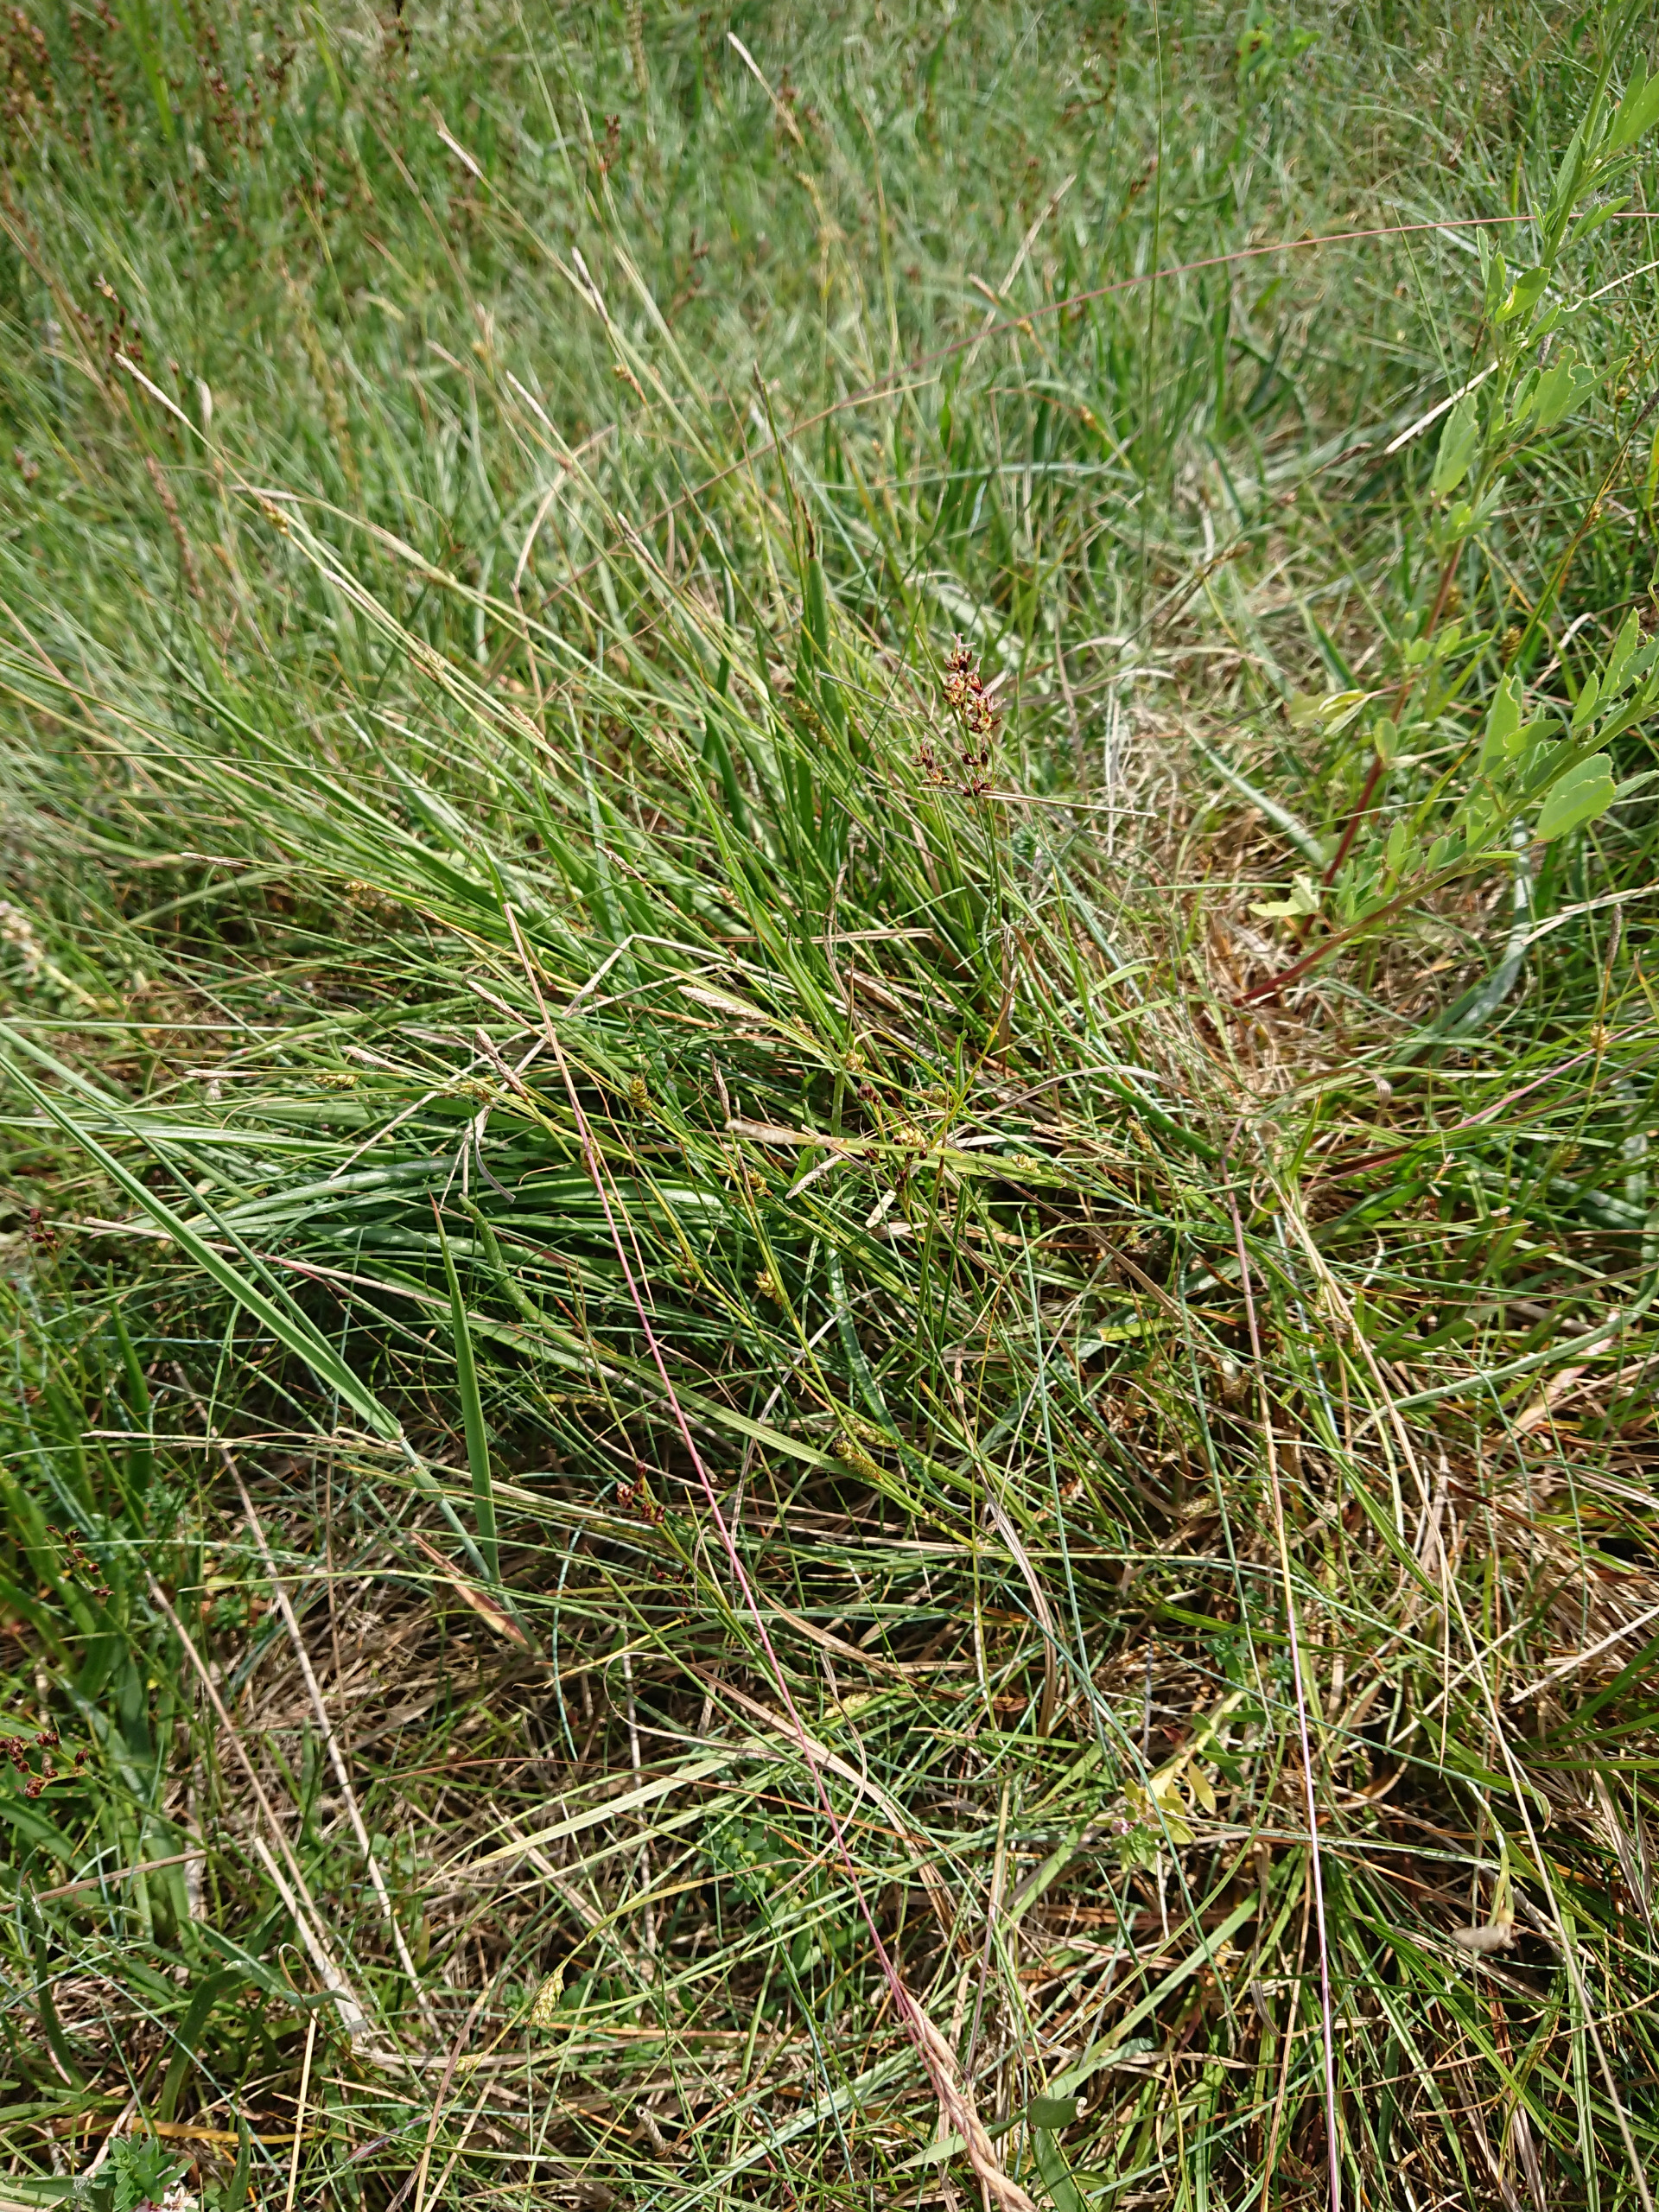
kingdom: Plantae
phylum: Tracheophyta
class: Liliopsida
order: Poales
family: Cyperaceae
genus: Carex
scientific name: Carex distans
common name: Fjernakset star
